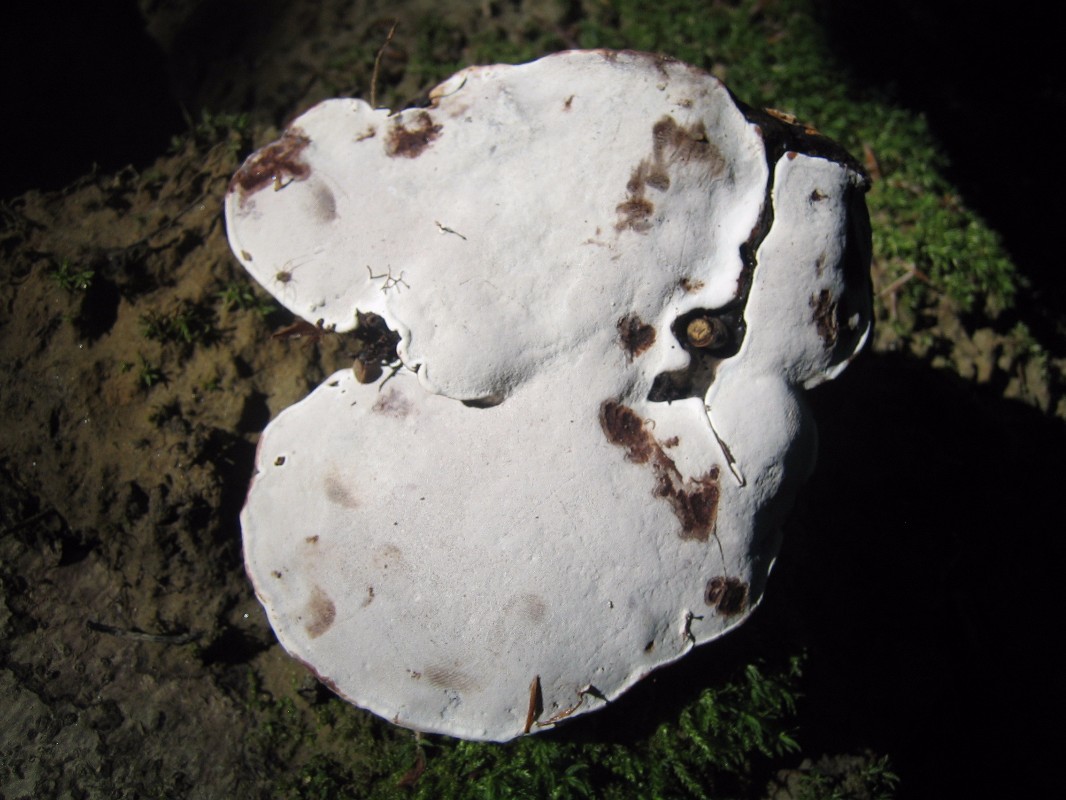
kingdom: Fungi
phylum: Basidiomycota
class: Agaricomycetes
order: Polyporales
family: Polyporaceae
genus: Ganoderma
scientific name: Ganoderma applanatum
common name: flad lakporesvamp
